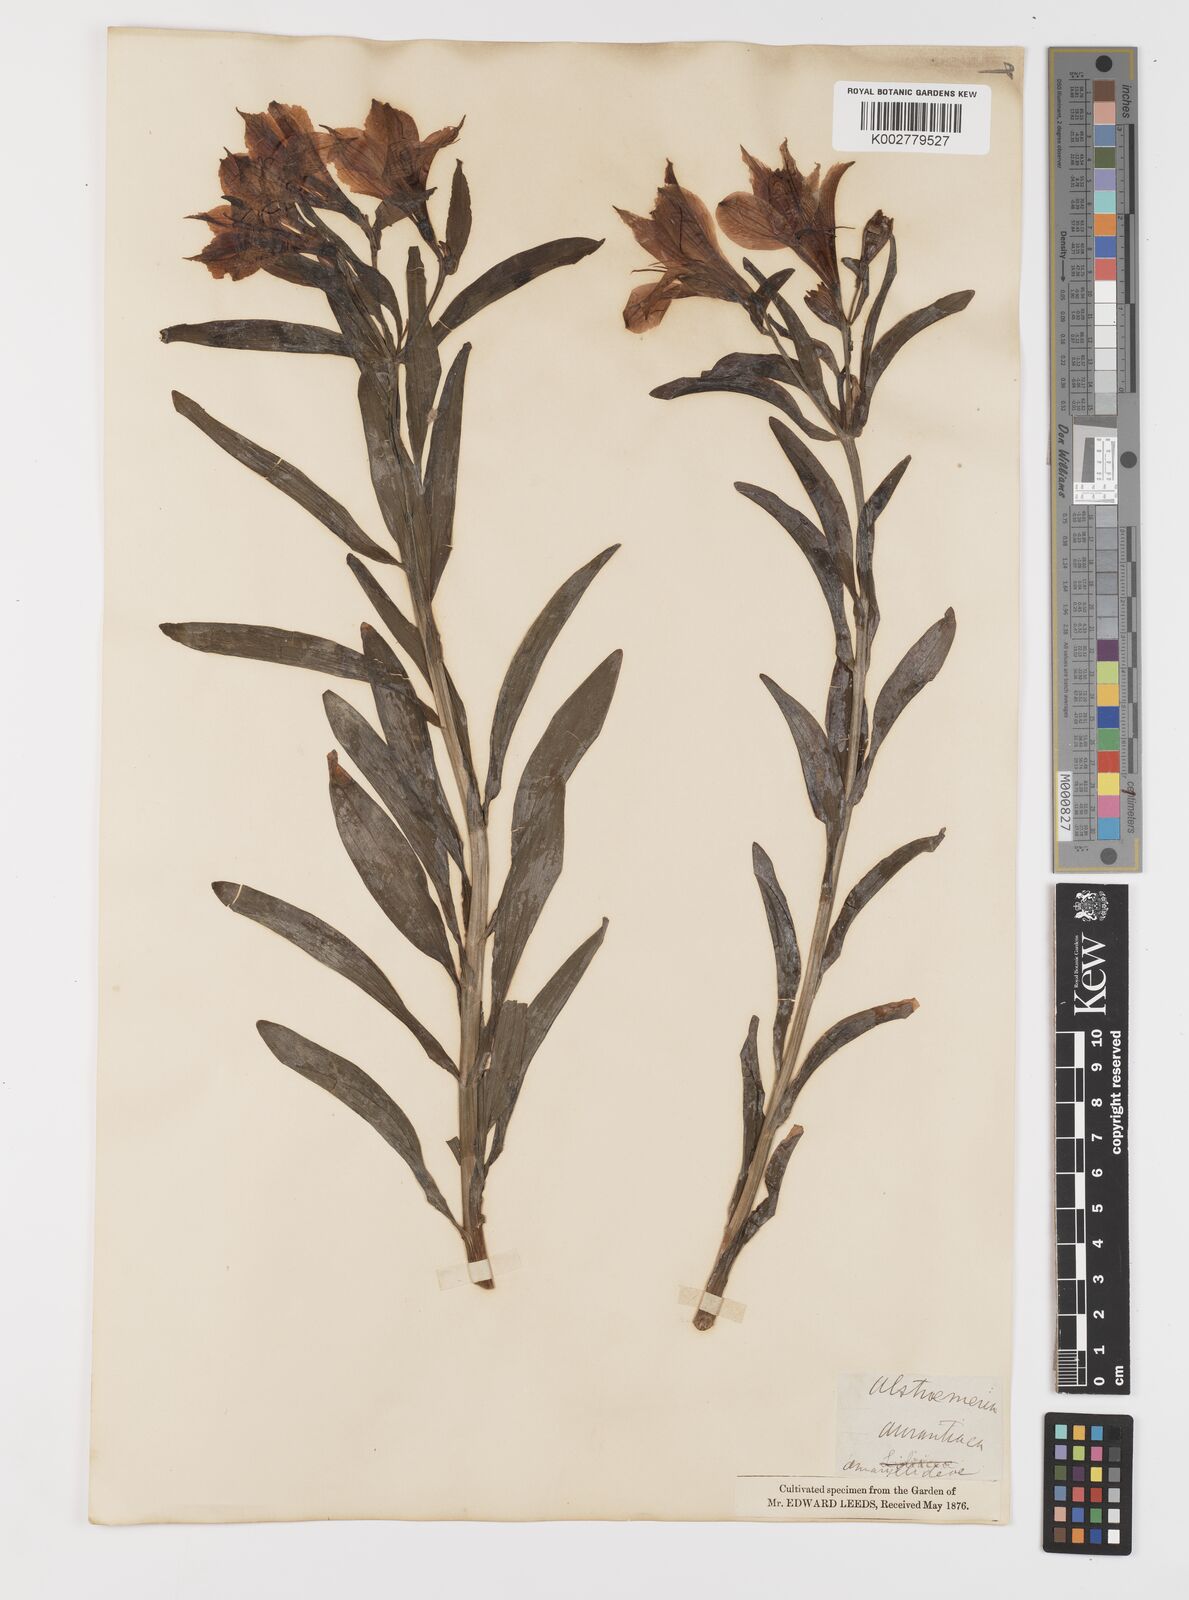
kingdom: Plantae
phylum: Tracheophyta
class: Liliopsida
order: Liliales
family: Alstroemeriaceae
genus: Alstroemeria
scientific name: Alstroemeria aurea
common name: Peruvian lily
